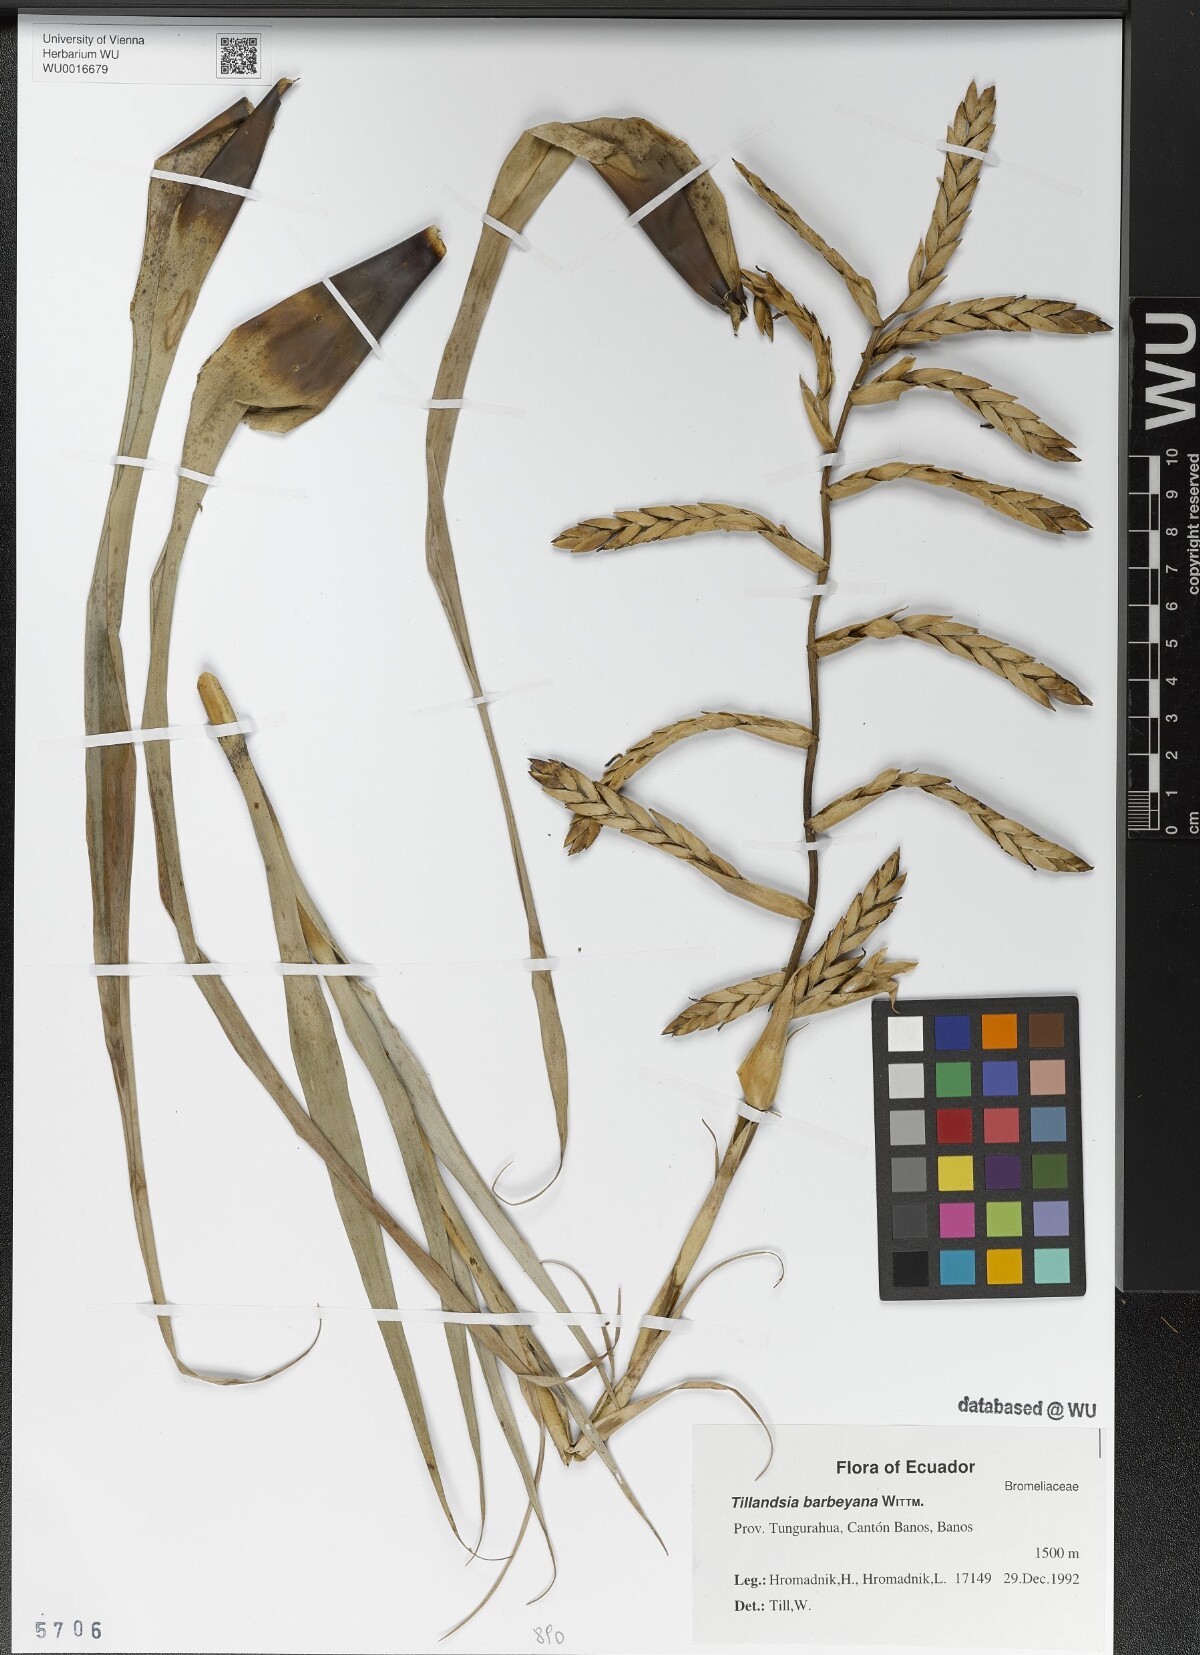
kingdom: Plantae
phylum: Tracheophyta
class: Liliopsida
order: Poales
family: Bromeliaceae
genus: Tillandsia
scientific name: Tillandsia barbeyana
